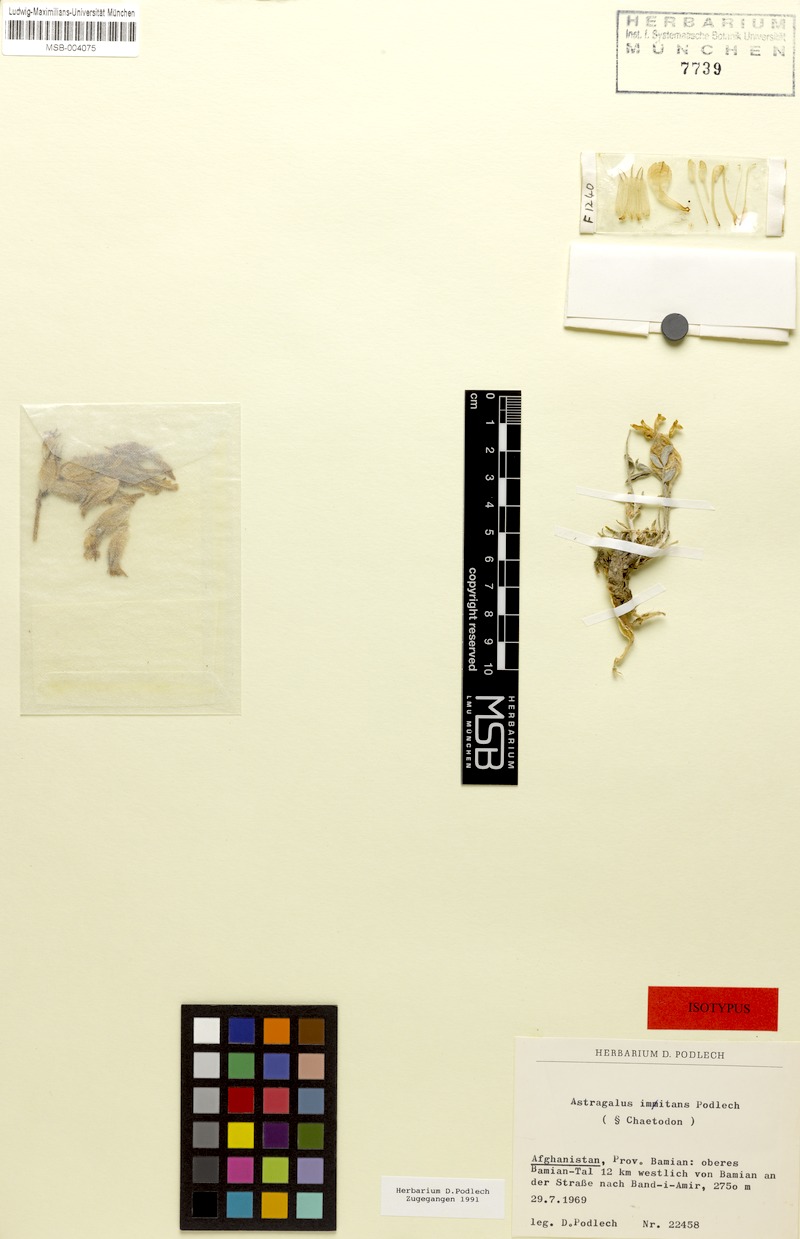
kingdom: Plantae
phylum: Tracheophyta
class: Magnoliopsida
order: Fabales
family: Fabaceae
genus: Astragalus
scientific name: Astragalus imitans
